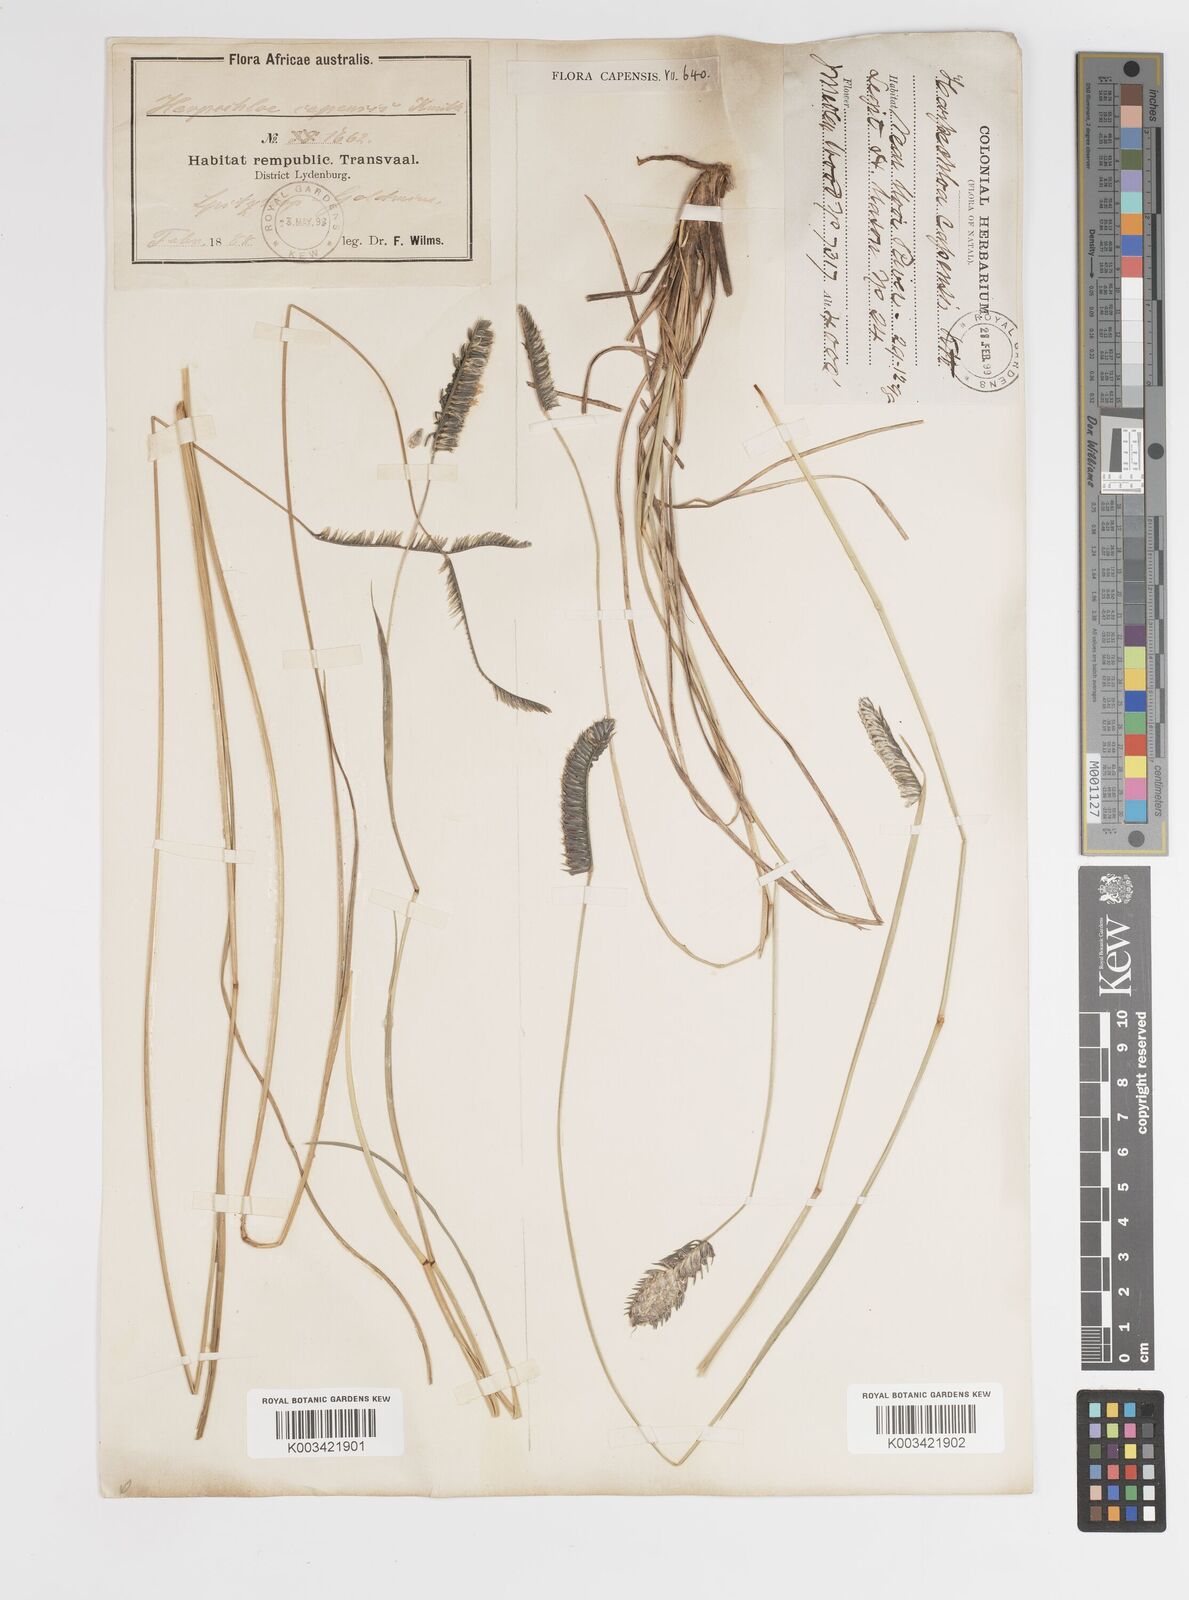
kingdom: Plantae
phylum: Tracheophyta
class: Liliopsida
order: Poales
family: Poaceae
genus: Harpochloa
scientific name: Harpochloa falx
